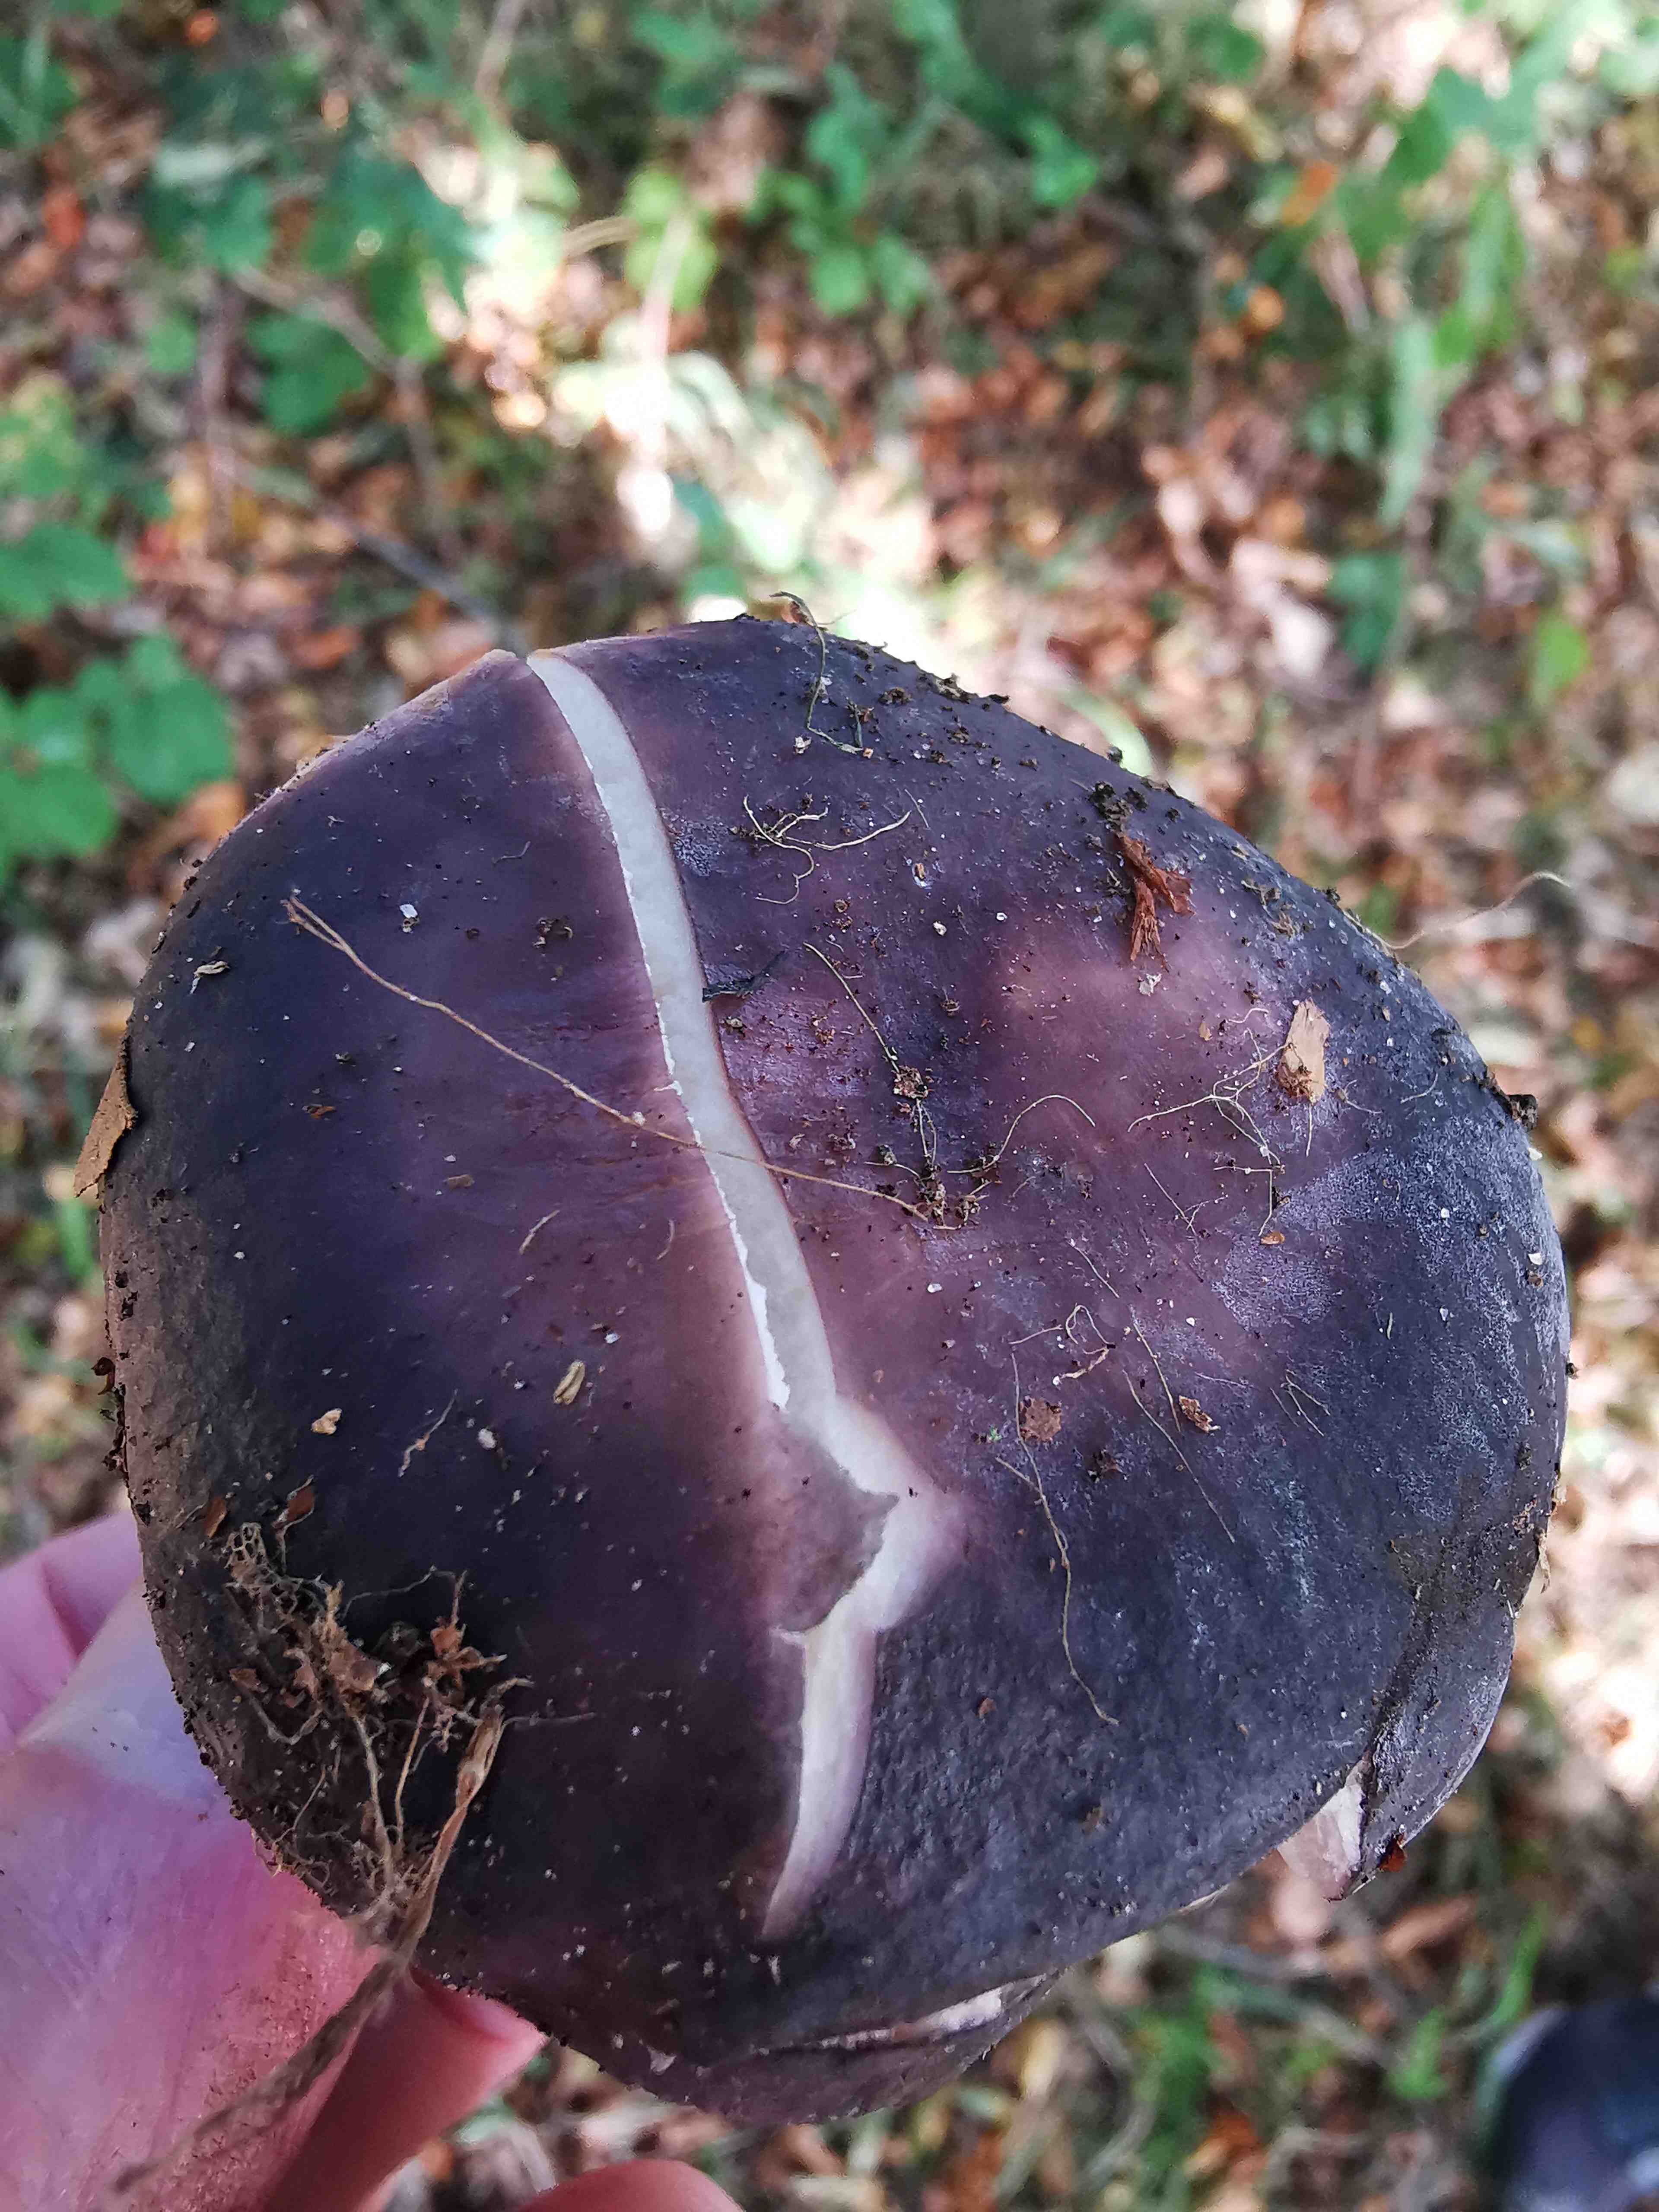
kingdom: Fungi
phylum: Basidiomycota
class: Agaricomycetes
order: Russulales
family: Russulaceae
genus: Russula
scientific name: Russula
